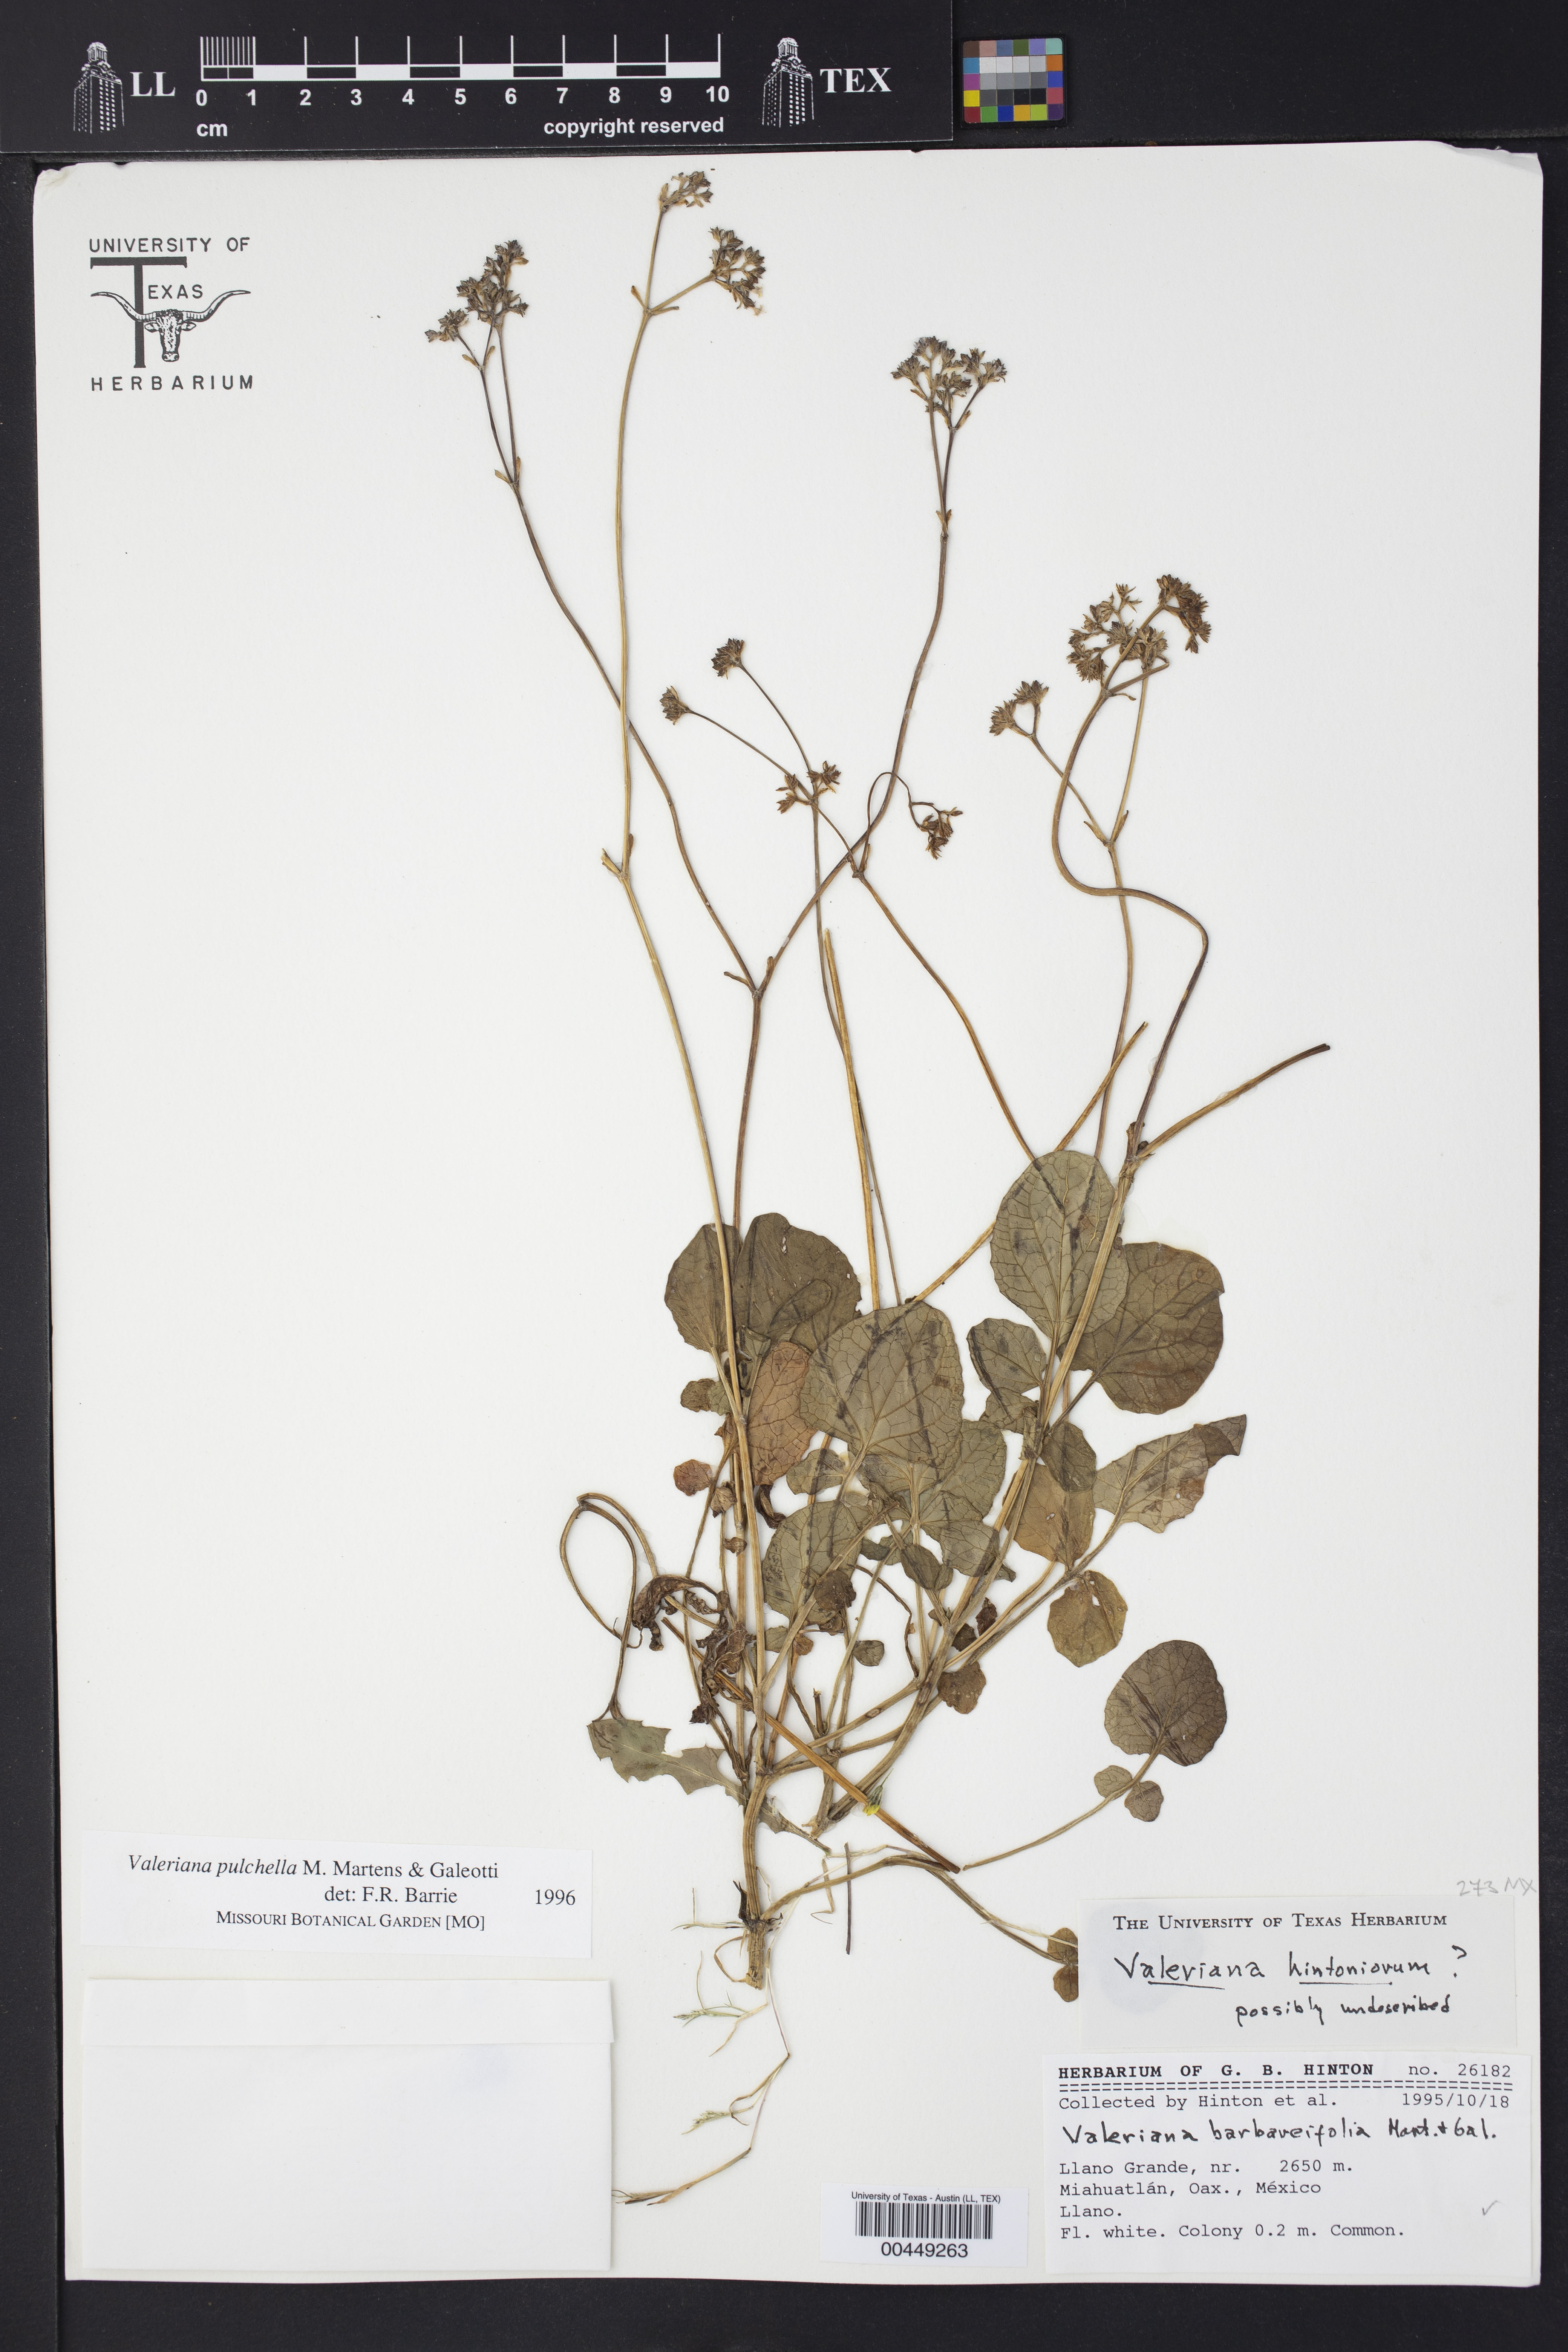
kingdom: Plantae
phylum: Tracheophyta
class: Magnoliopsida
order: Dipsacales
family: Caprifoliaceae
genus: Valeriana
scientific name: Valeriana pulchella
